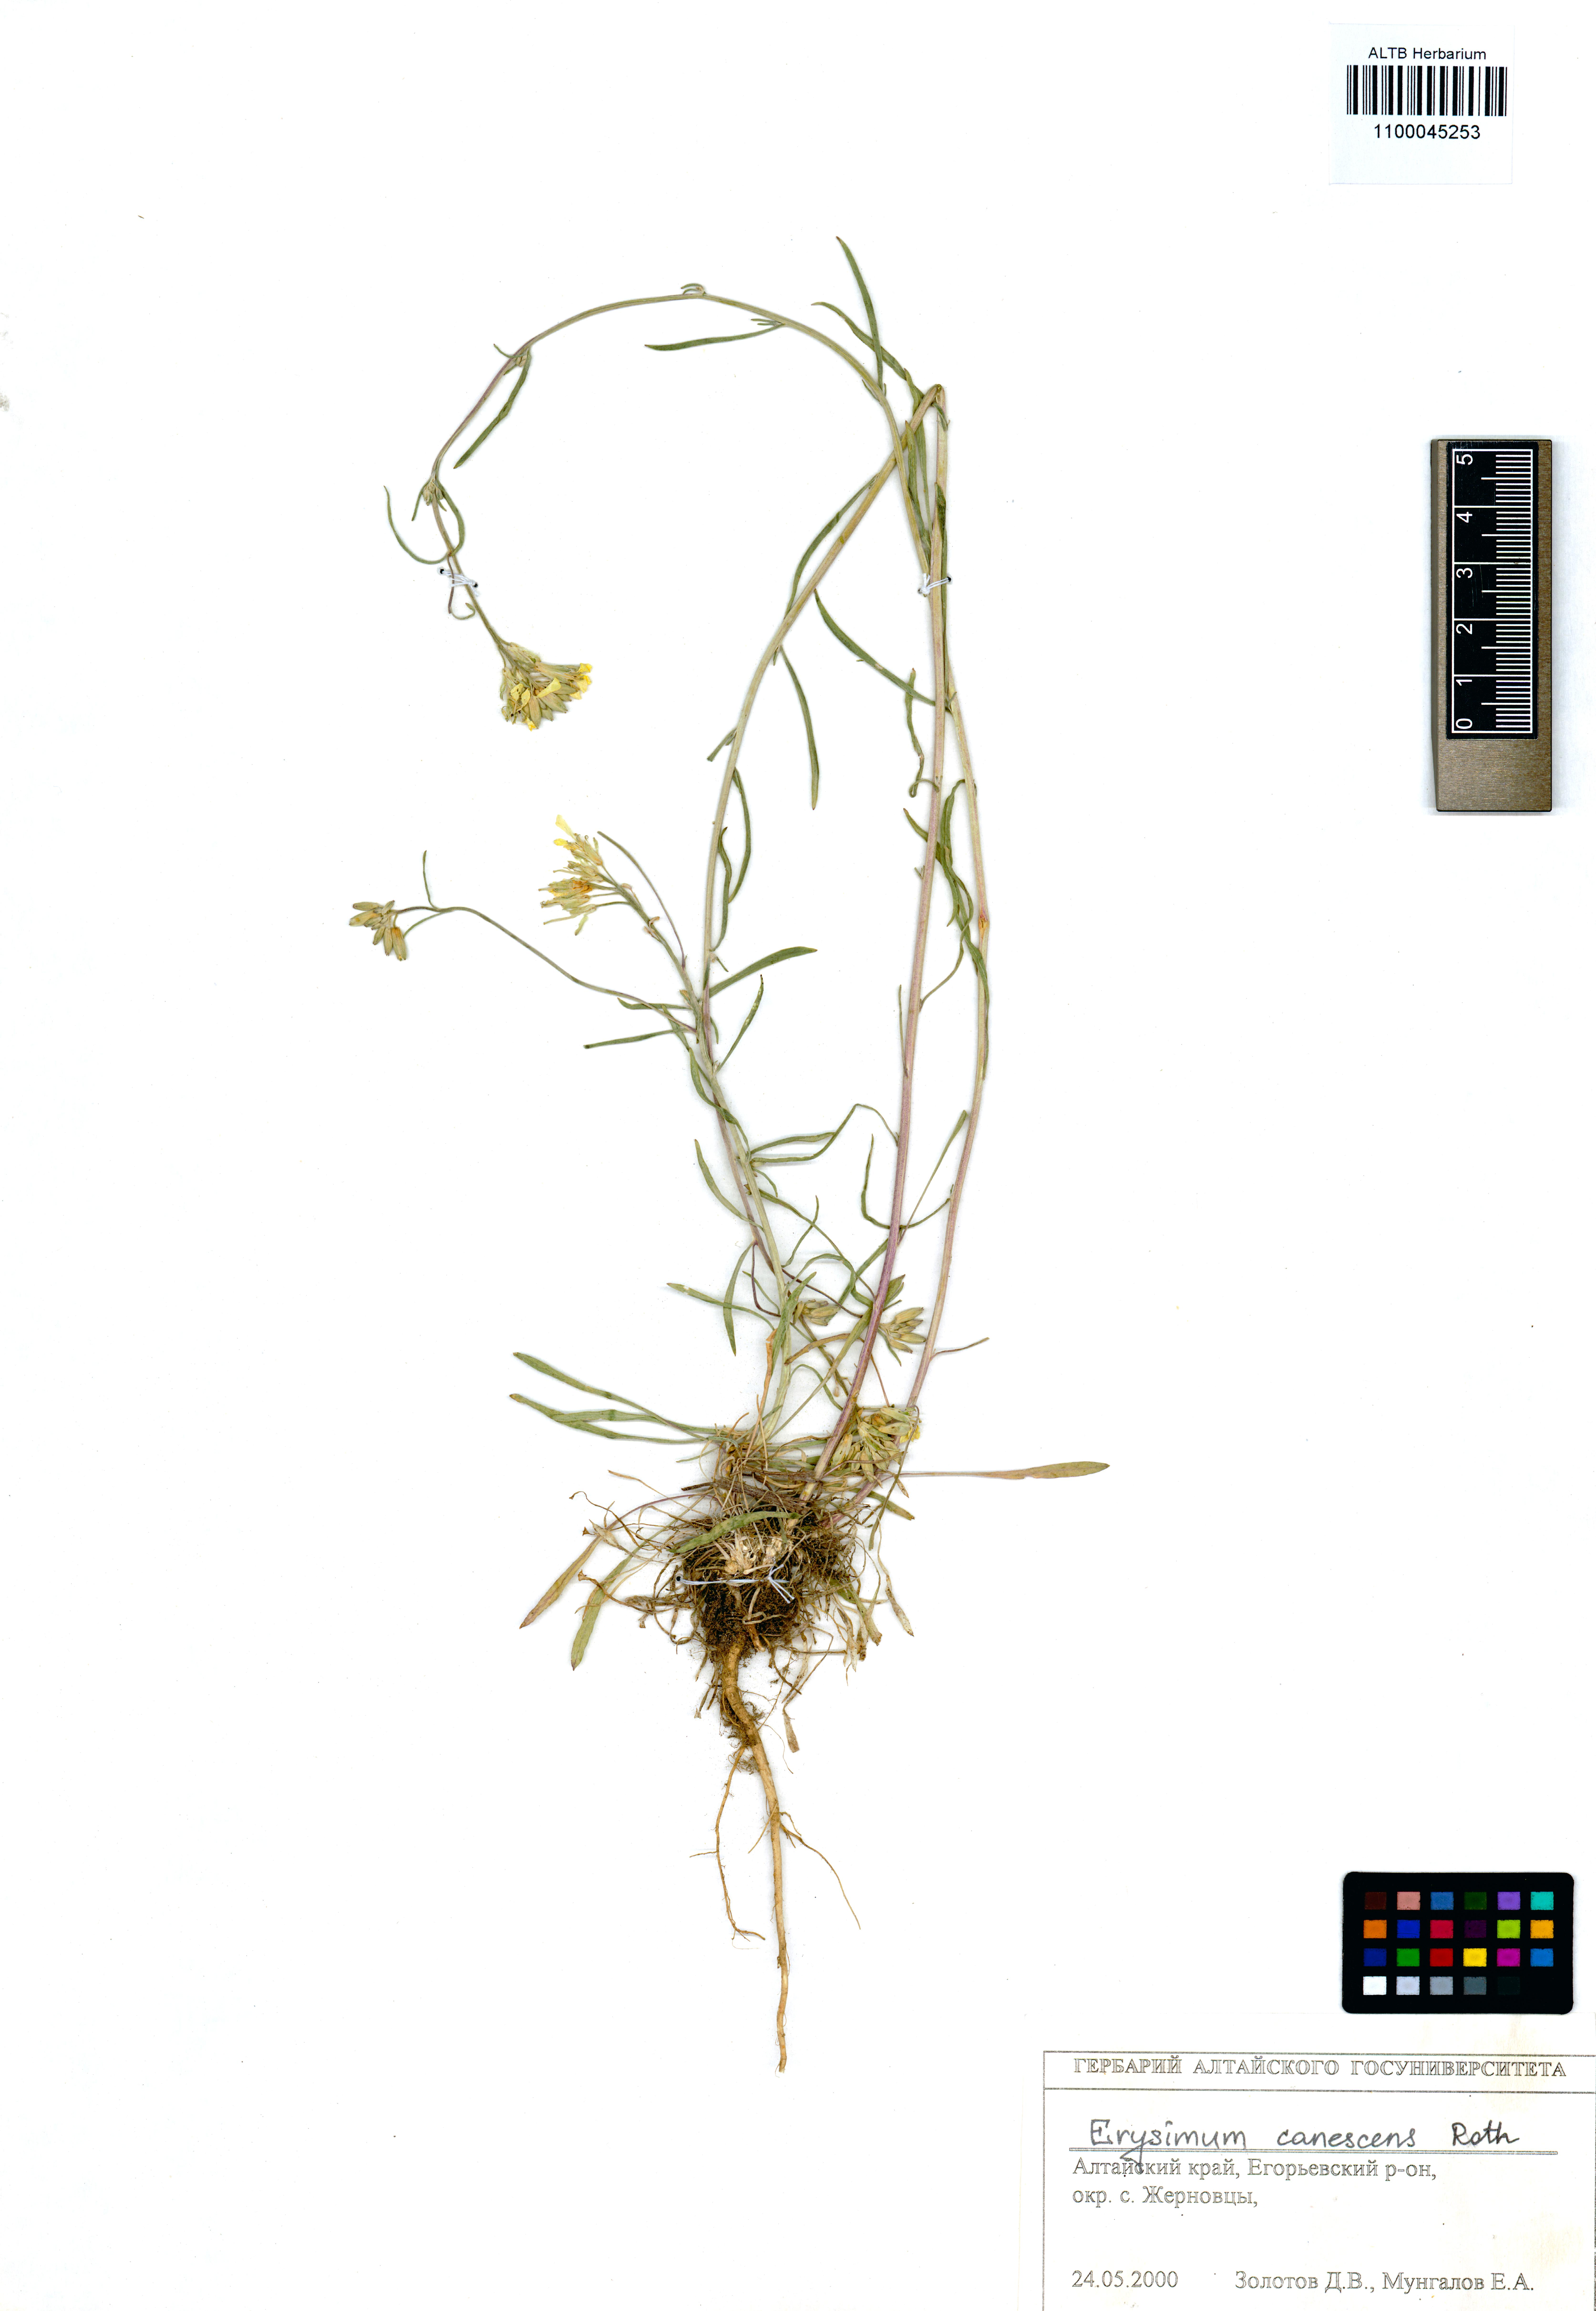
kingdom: Plantae
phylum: Tracheophyta
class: Magnoliopsida
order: Brassicales
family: Brassicaceae
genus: Erysimum
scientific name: Erysimum canescens
